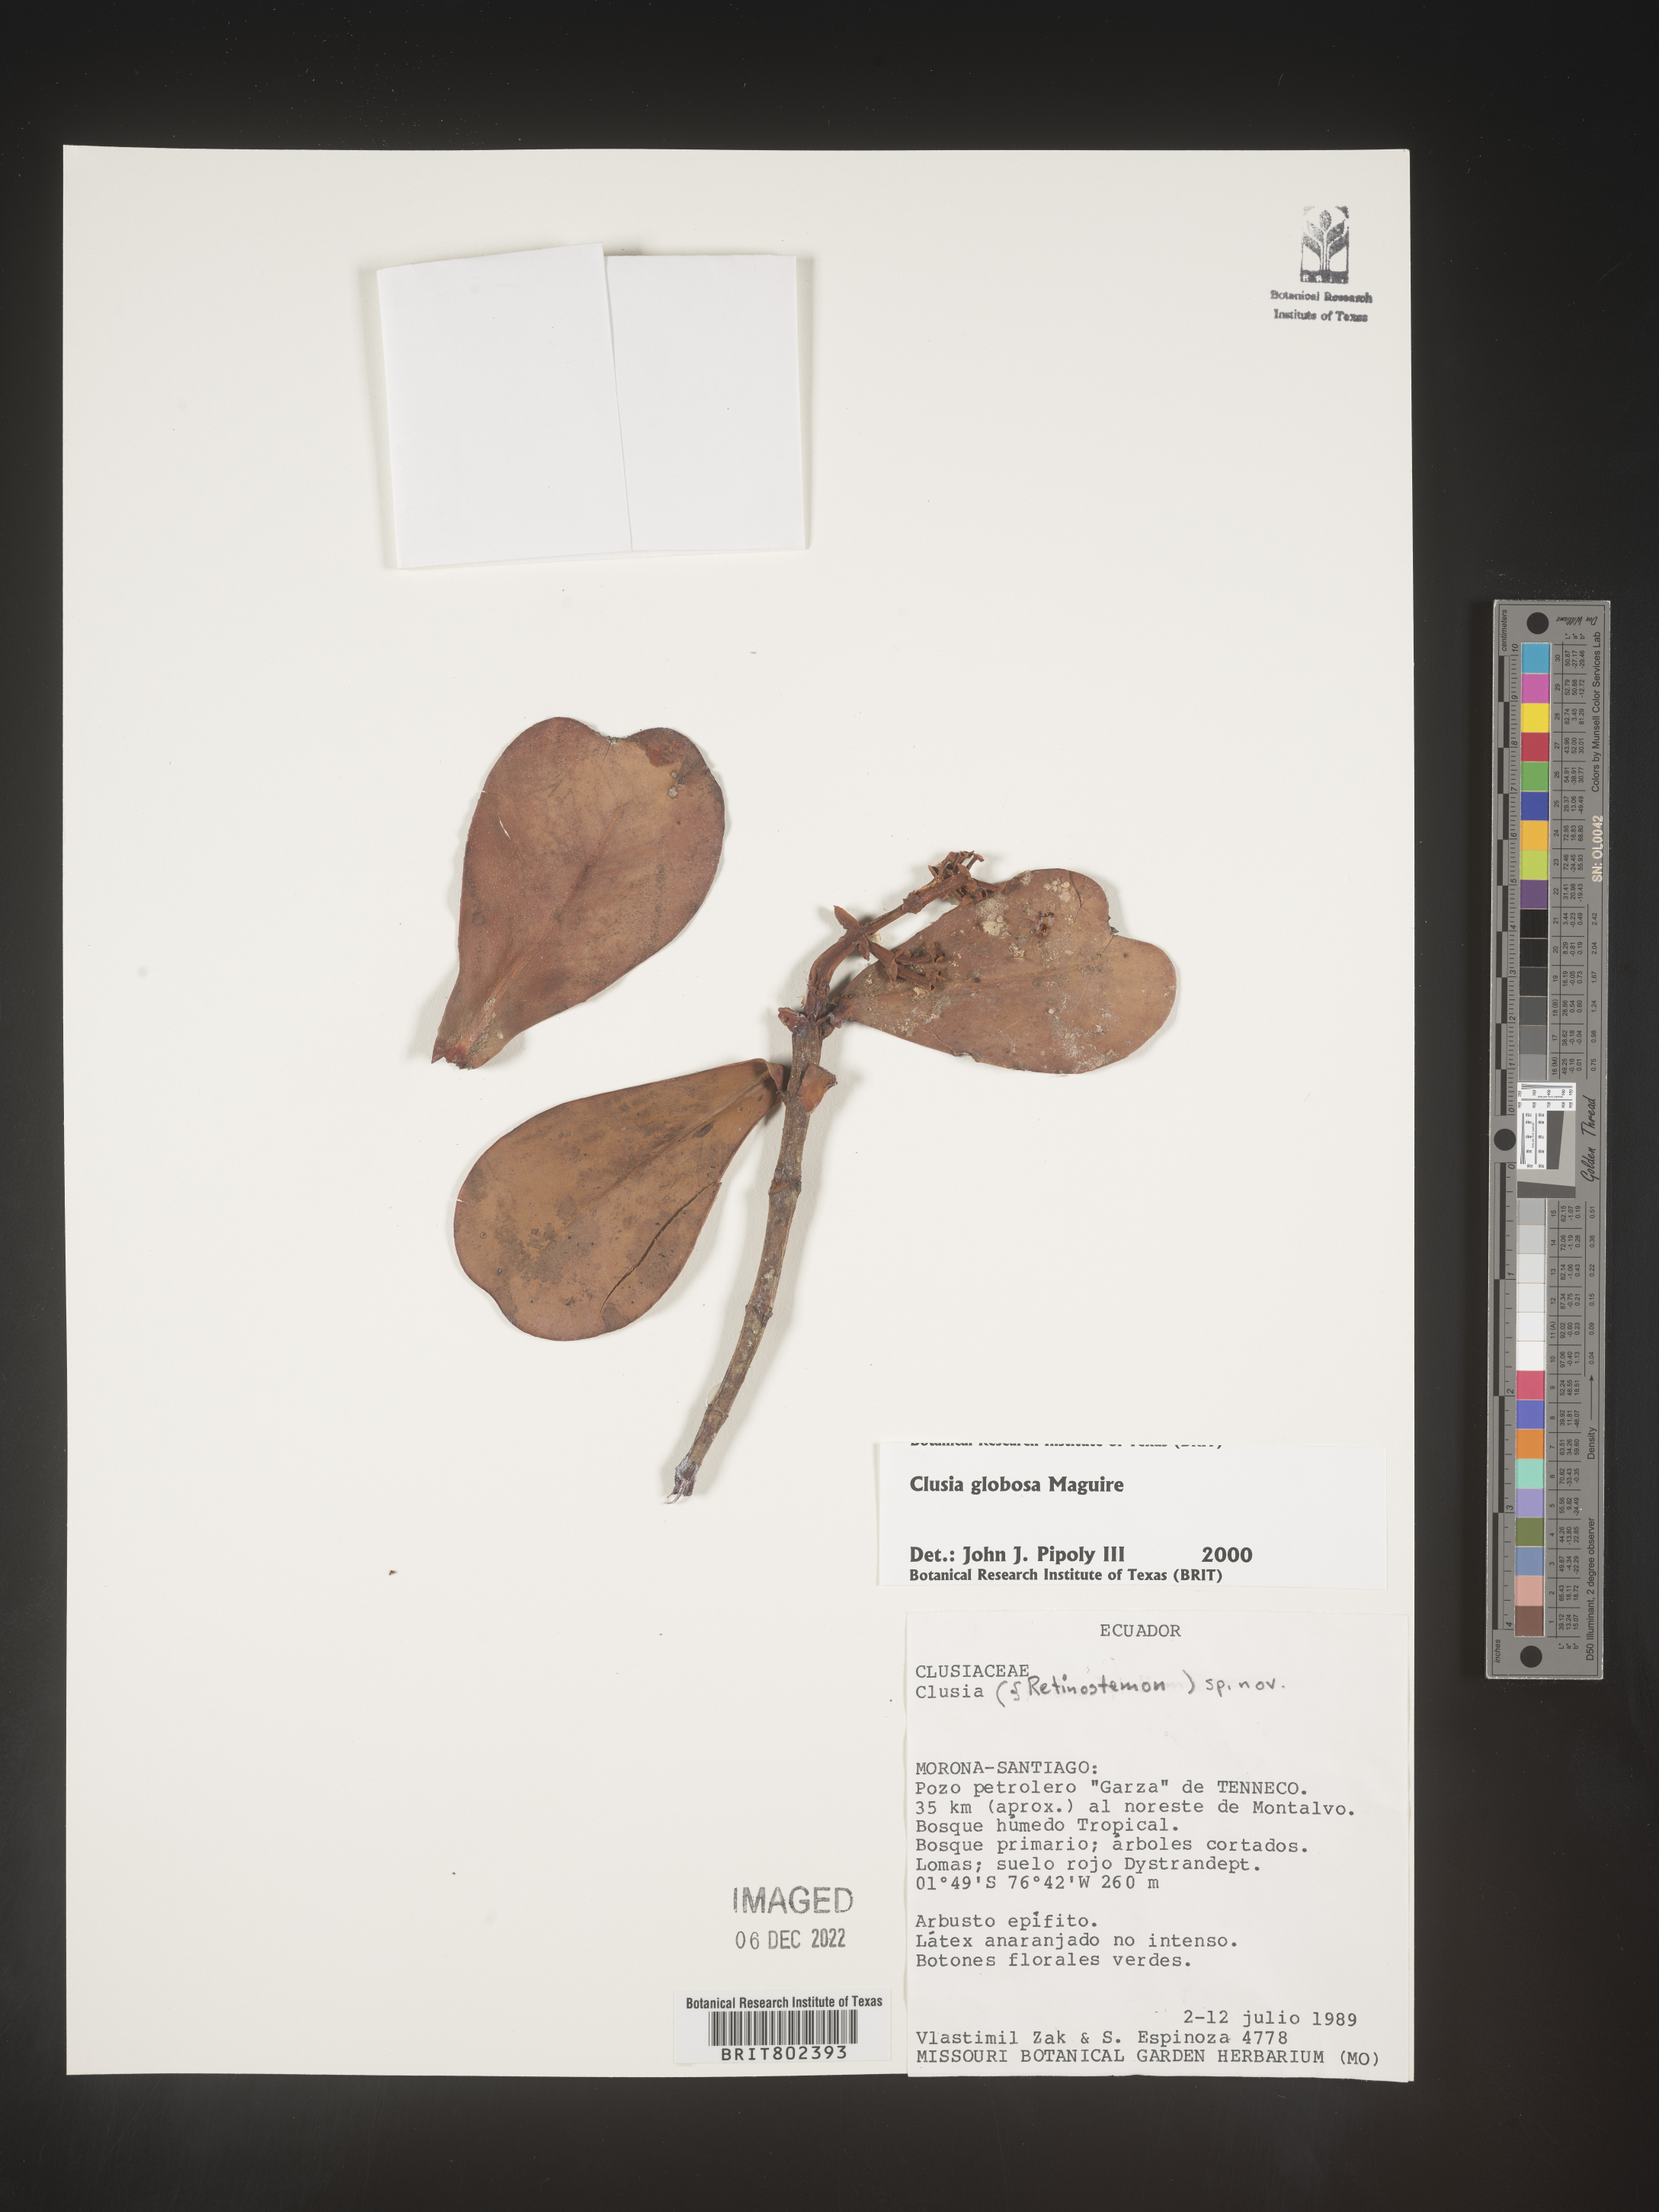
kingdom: Plantae
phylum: Tracheophyta
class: Magnoliopsida
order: Malpighiales
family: Clusiaceae
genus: Clusia
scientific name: Clusia
